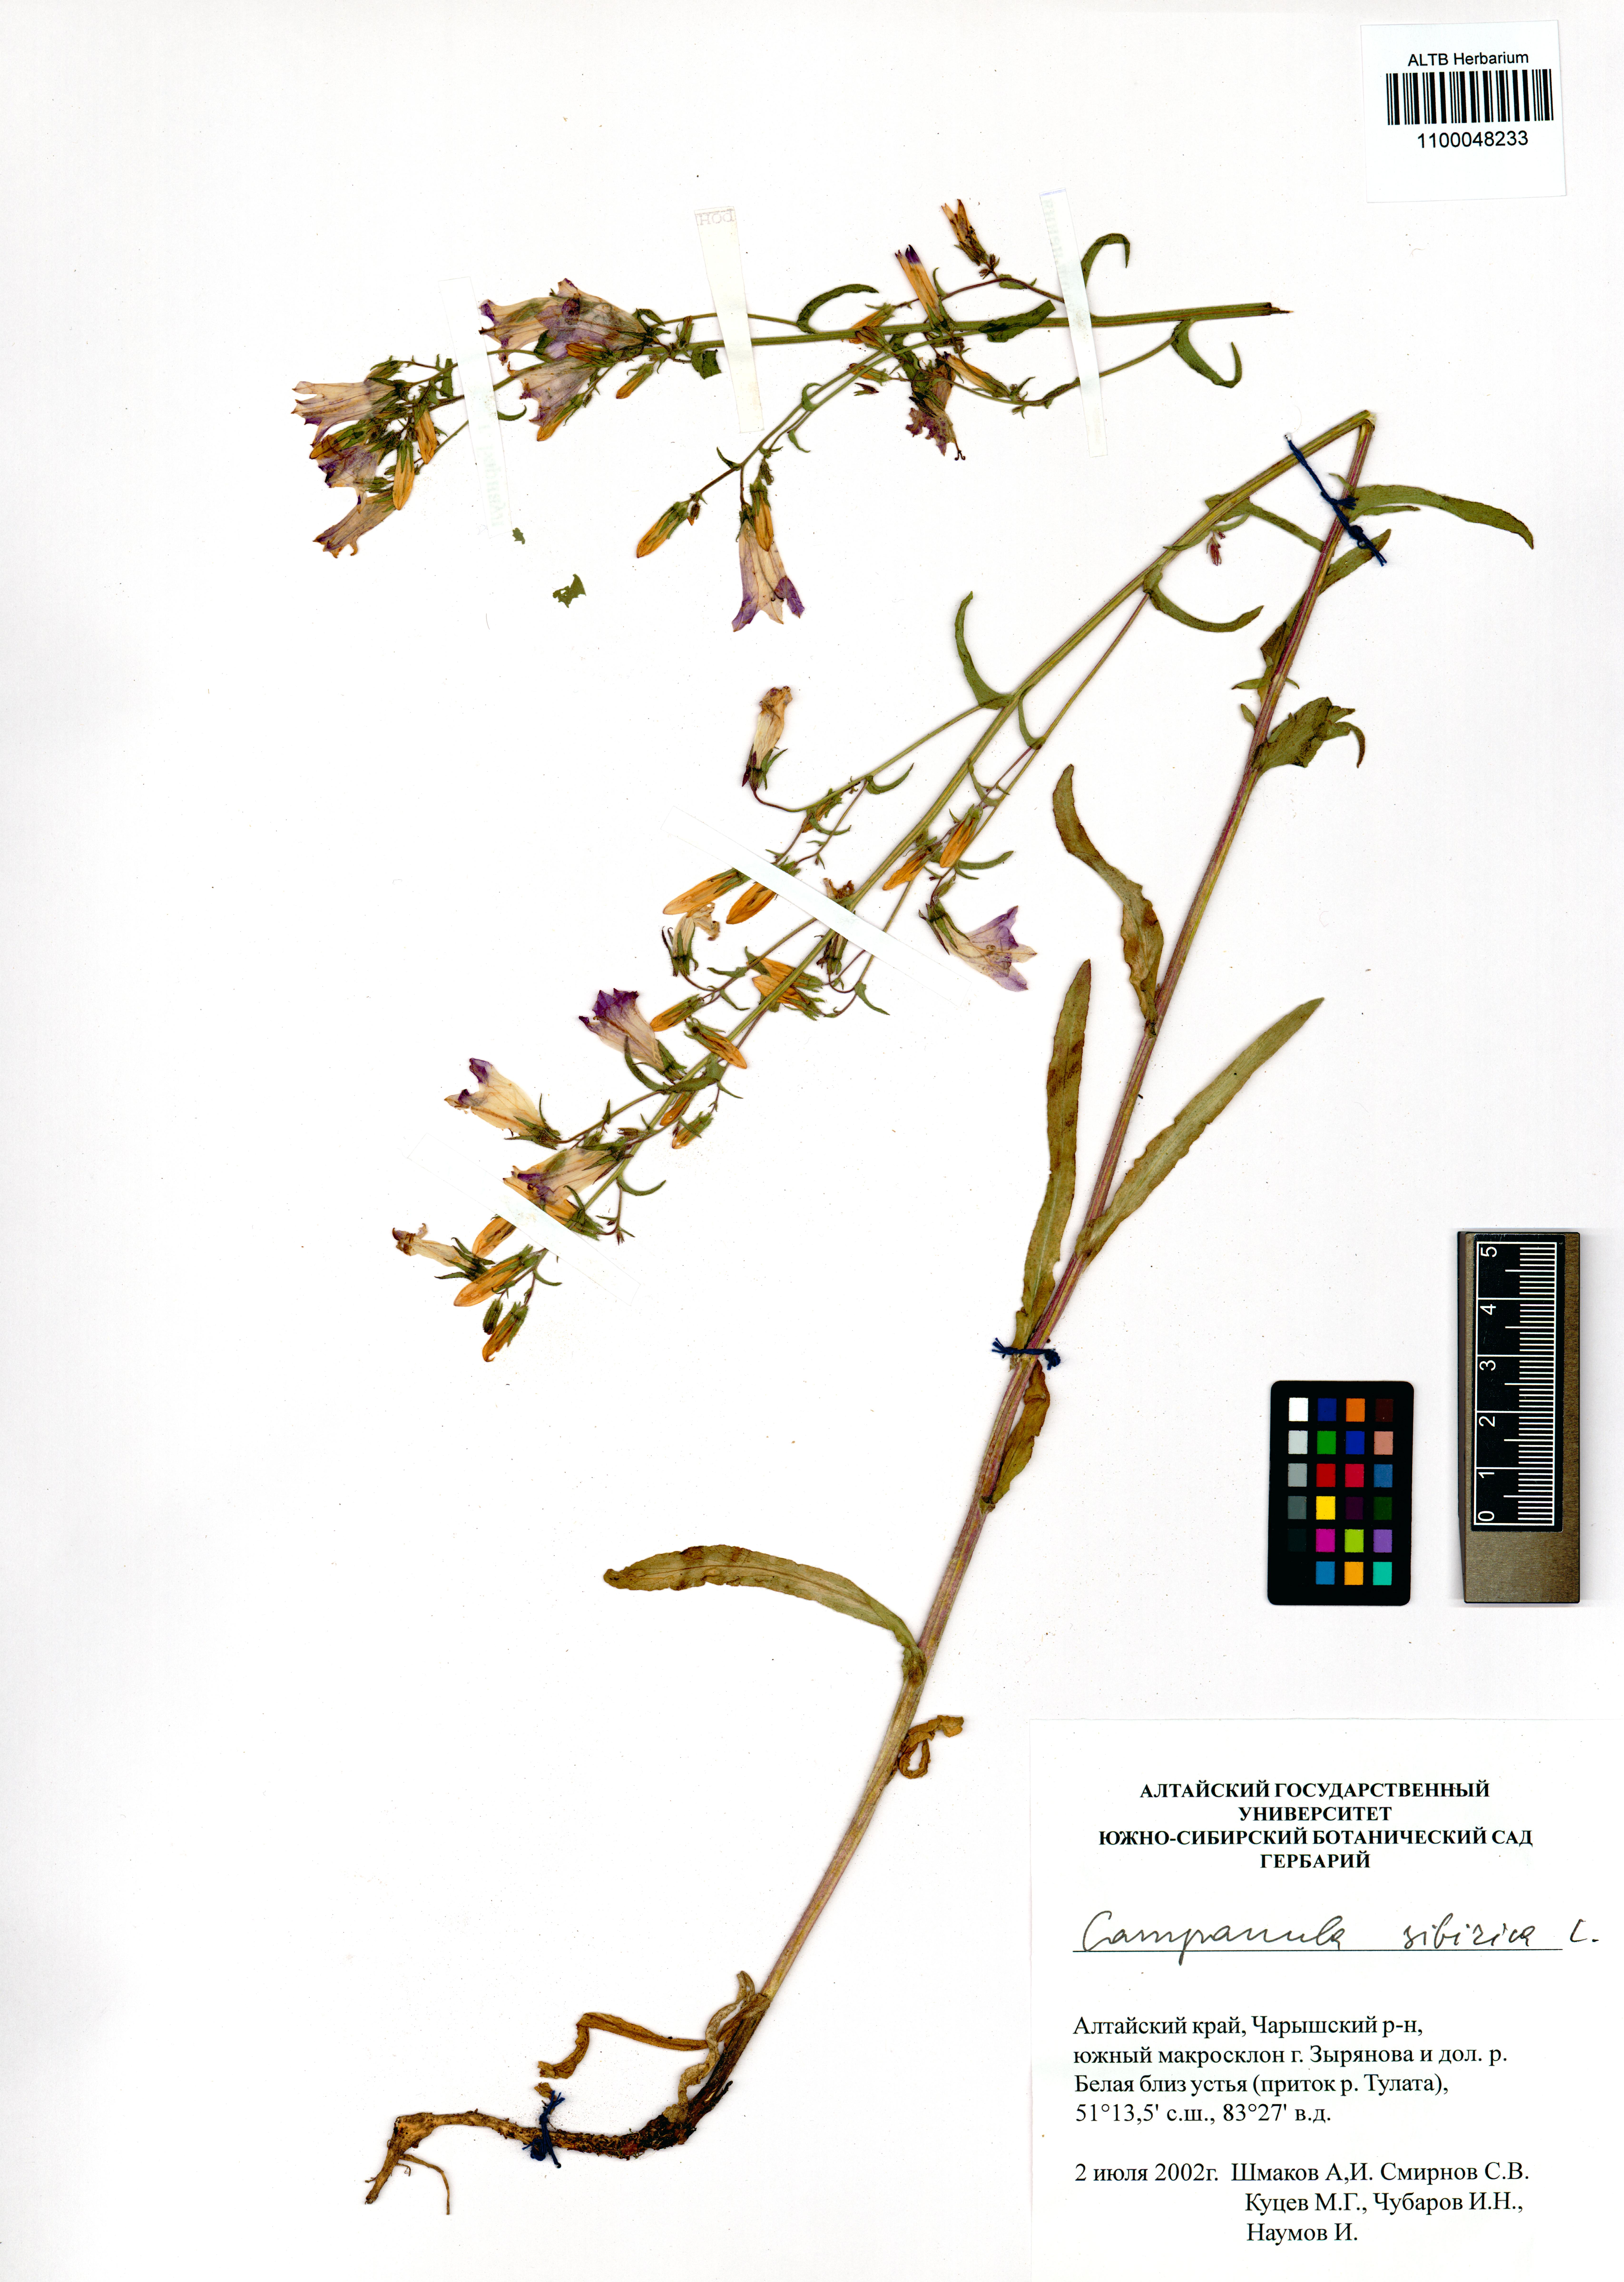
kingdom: Plantae
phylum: Tracheophyta
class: Magnoliopsida
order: Asterales
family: Campanulaceae
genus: Campanula
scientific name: Campanula sibirica
